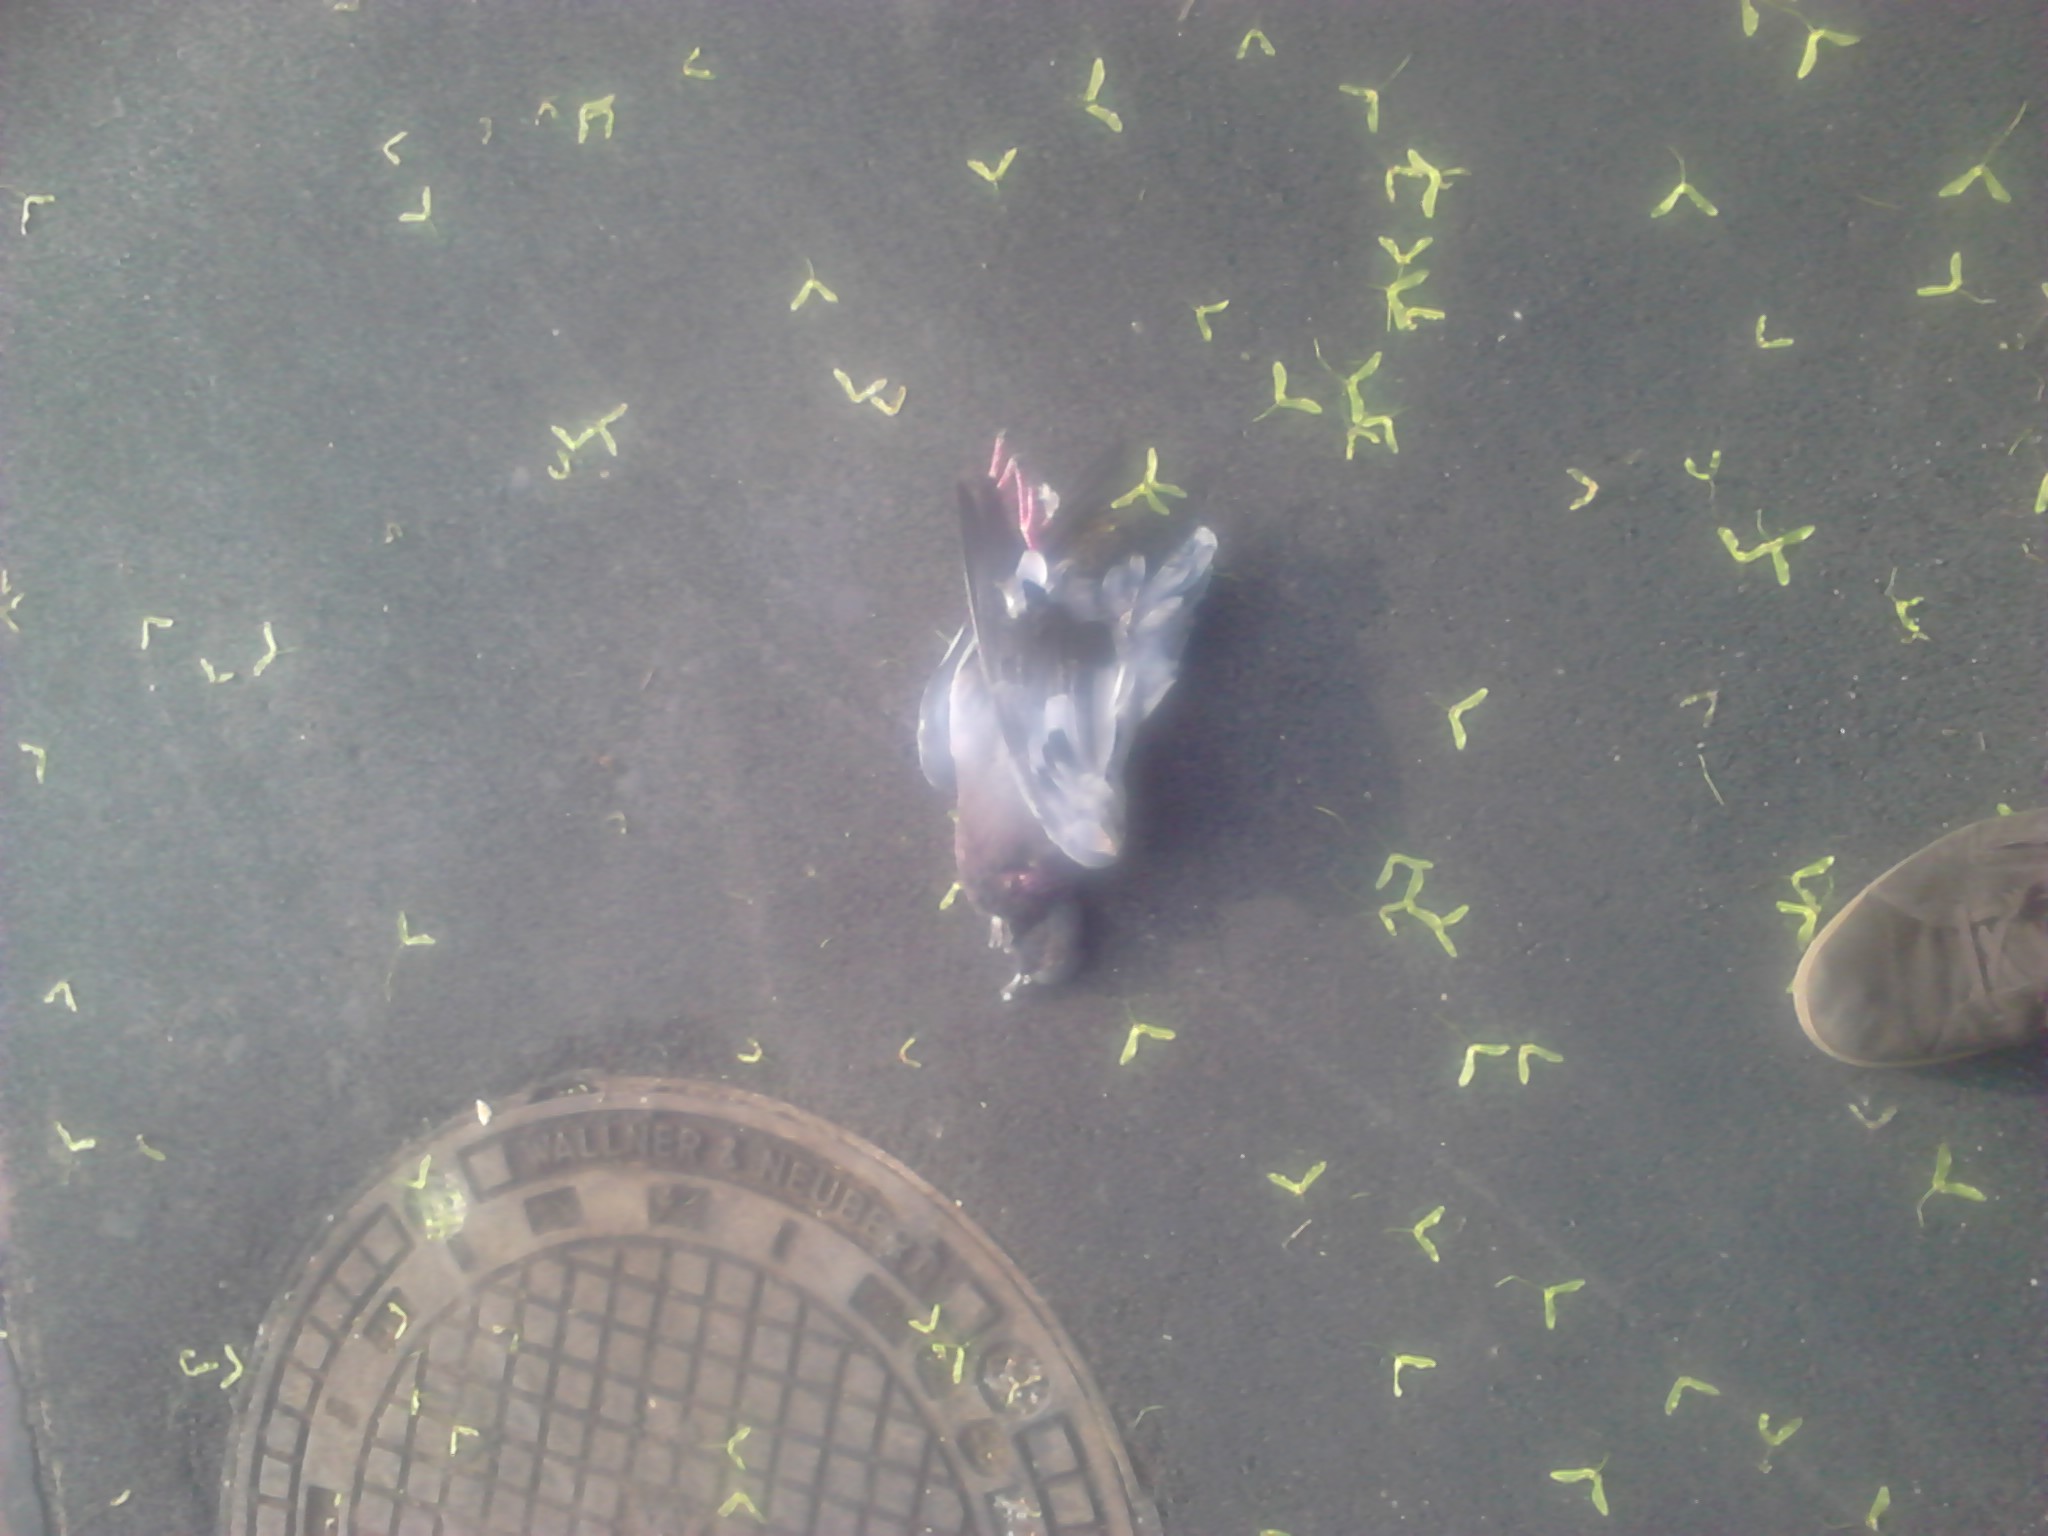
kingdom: Animalia
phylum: Chordata
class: Aves
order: Columbiformes
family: Columbidae
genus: Columba
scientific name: Columba livia
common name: Rock pigeon
